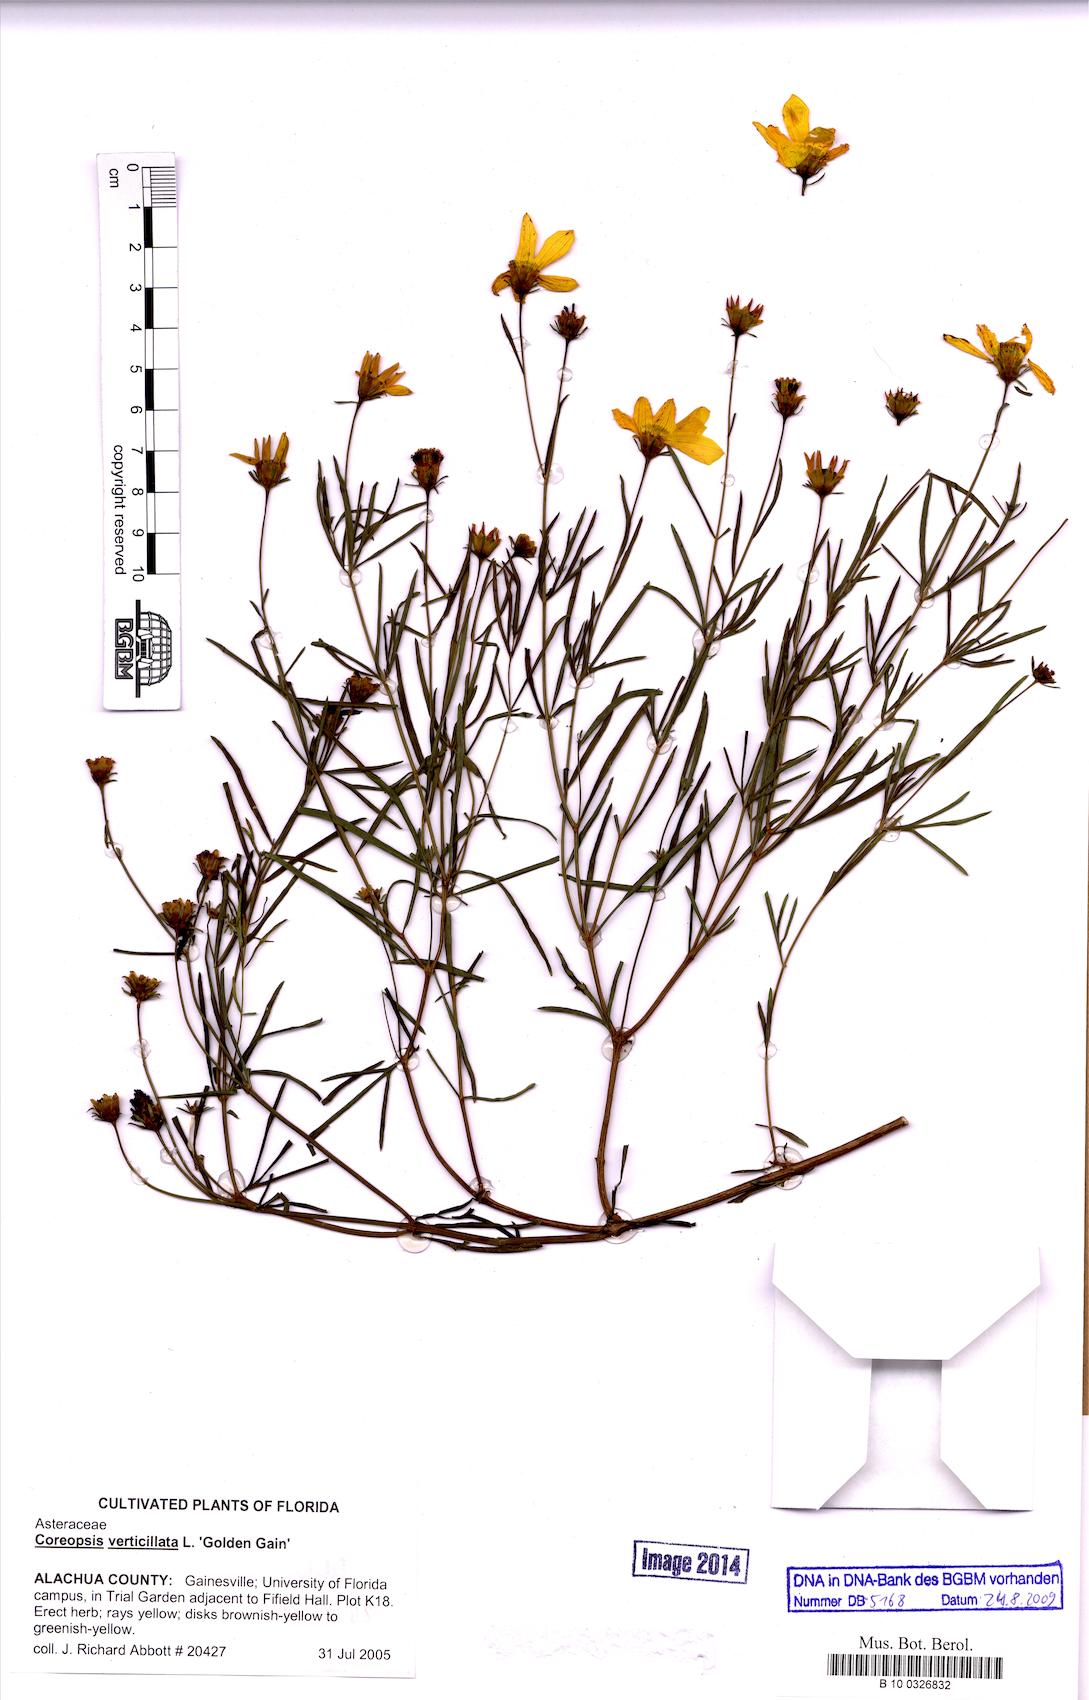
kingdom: Plantae
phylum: Tracheophyta
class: Magnoliopsida
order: Asterales
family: Asteraceae
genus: Coreopsis
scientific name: Coreopsis verticillata
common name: Whorled tickseed
